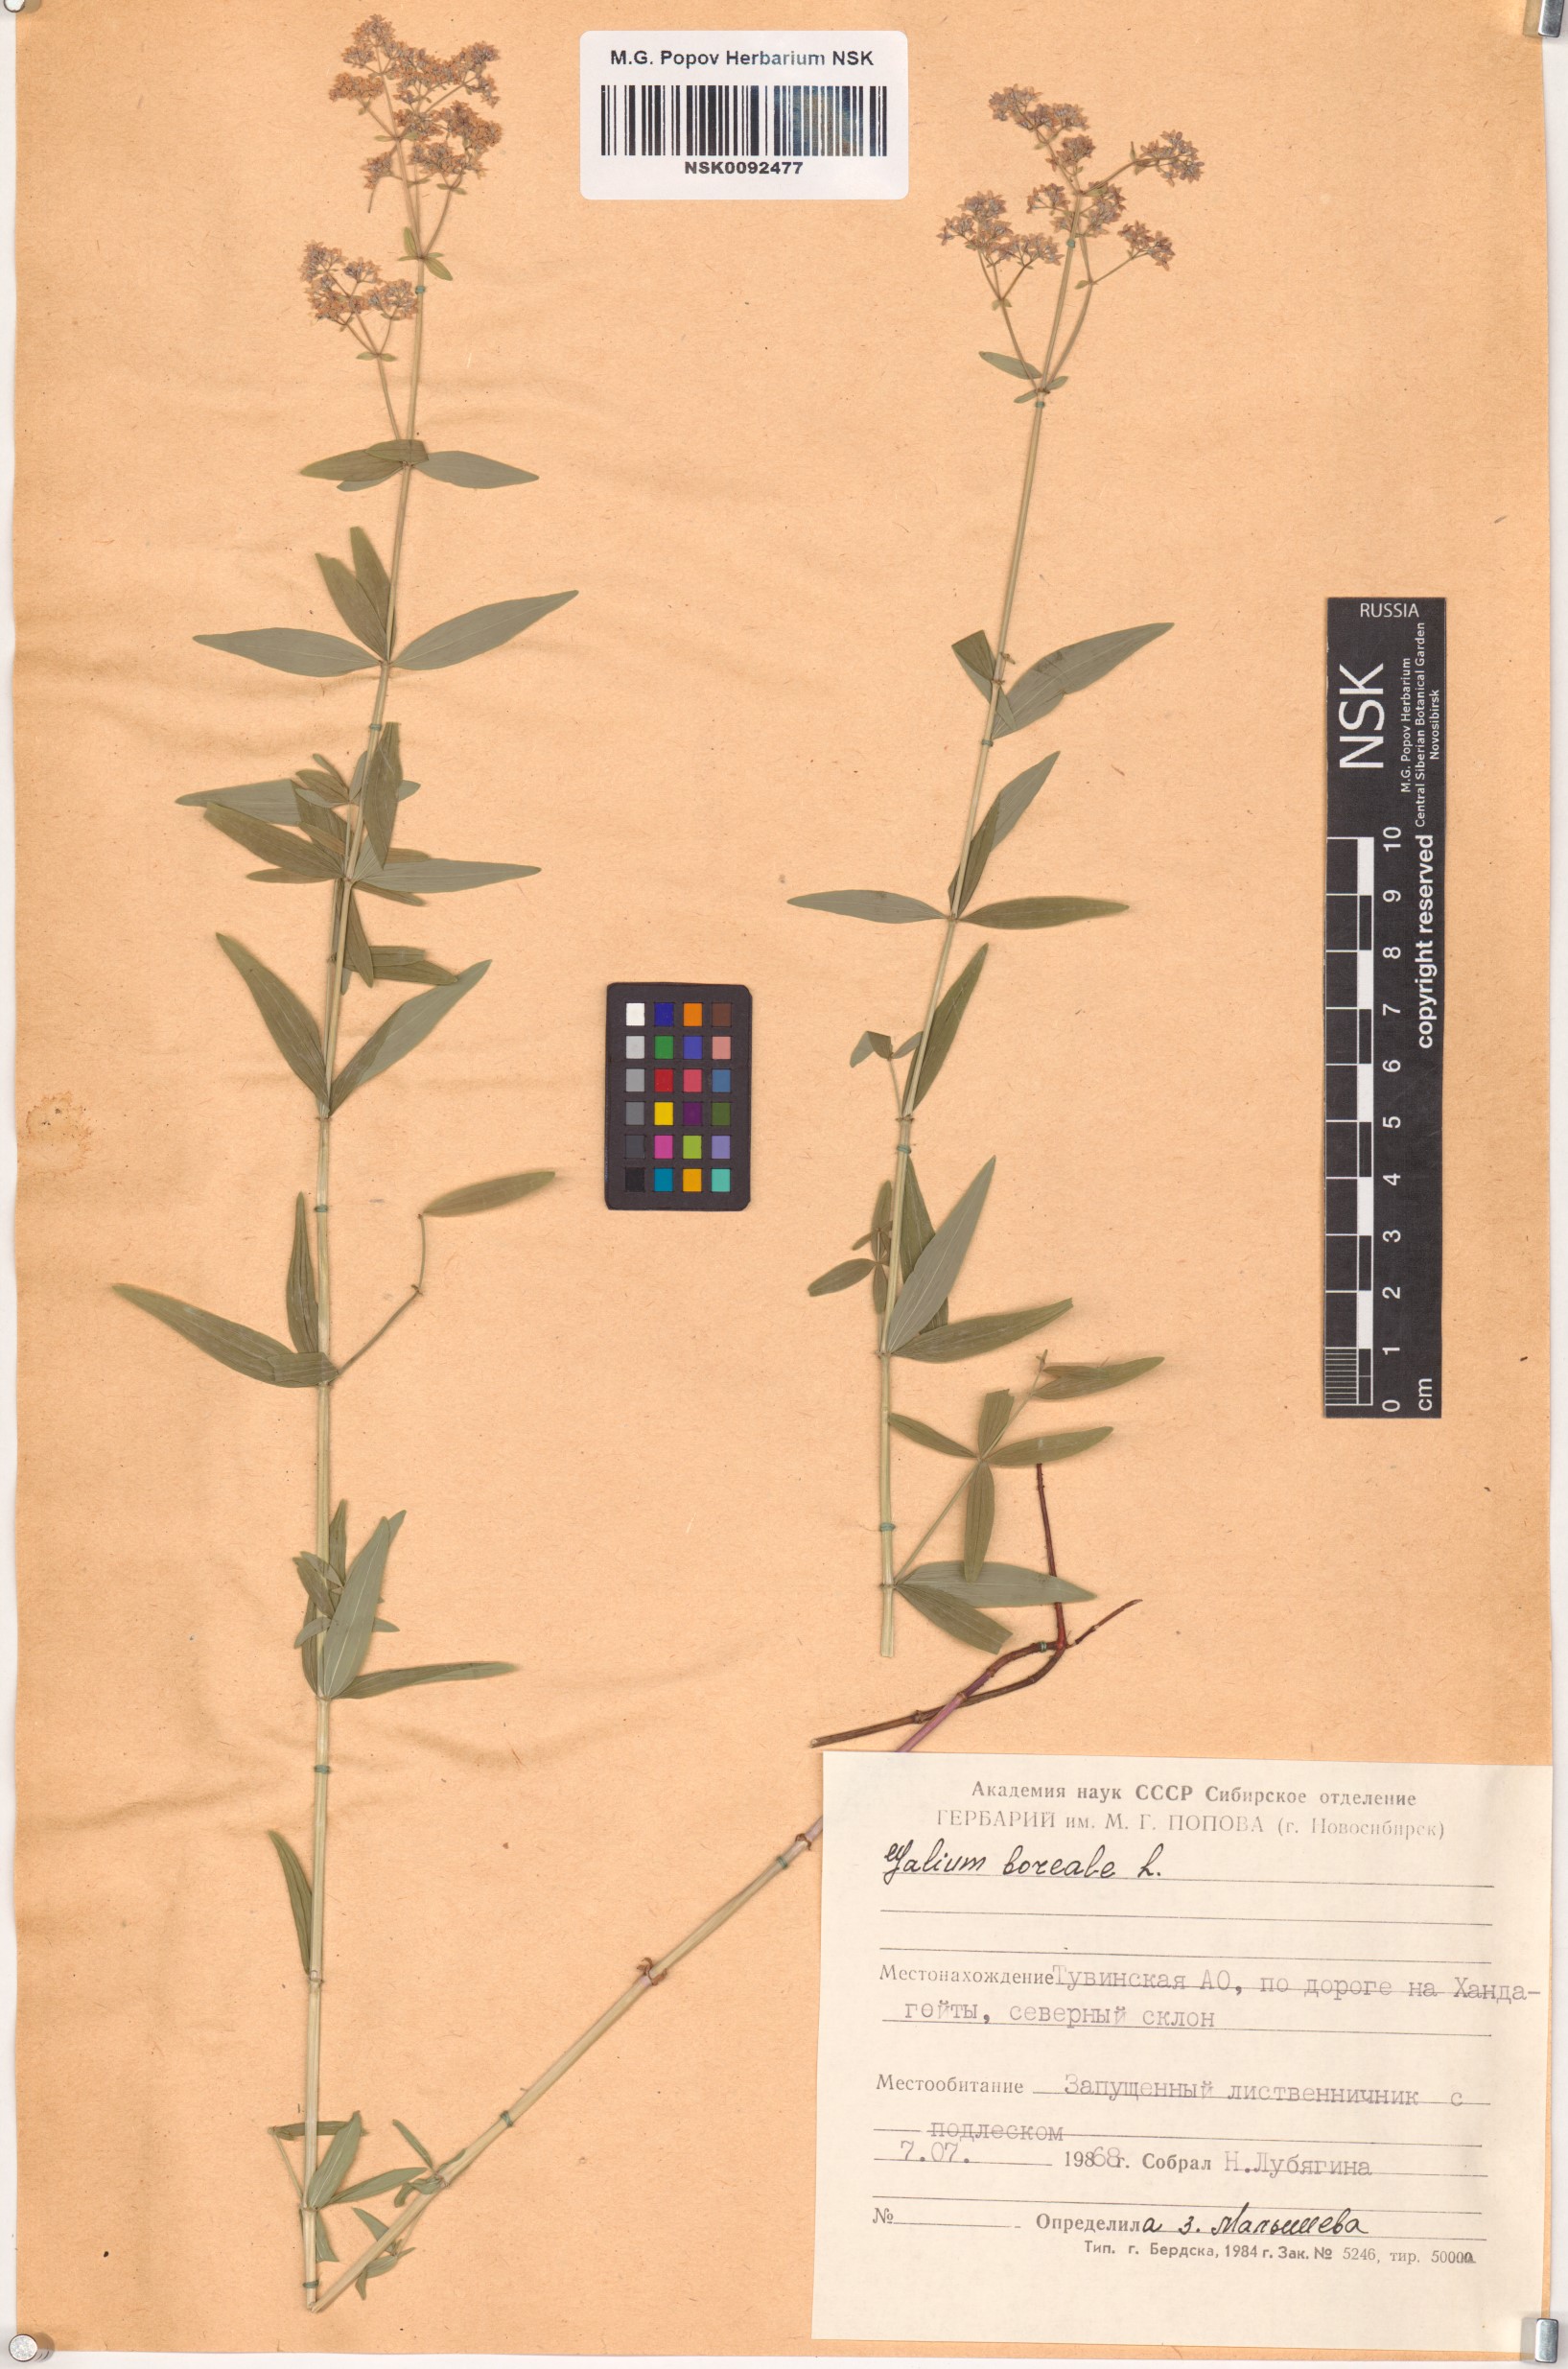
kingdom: Plantae
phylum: Tracheophyta
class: Magnoliopsida
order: Gentianales
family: Rubiaceae
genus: Galium
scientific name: Galium boreale
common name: Northern bedstraw
